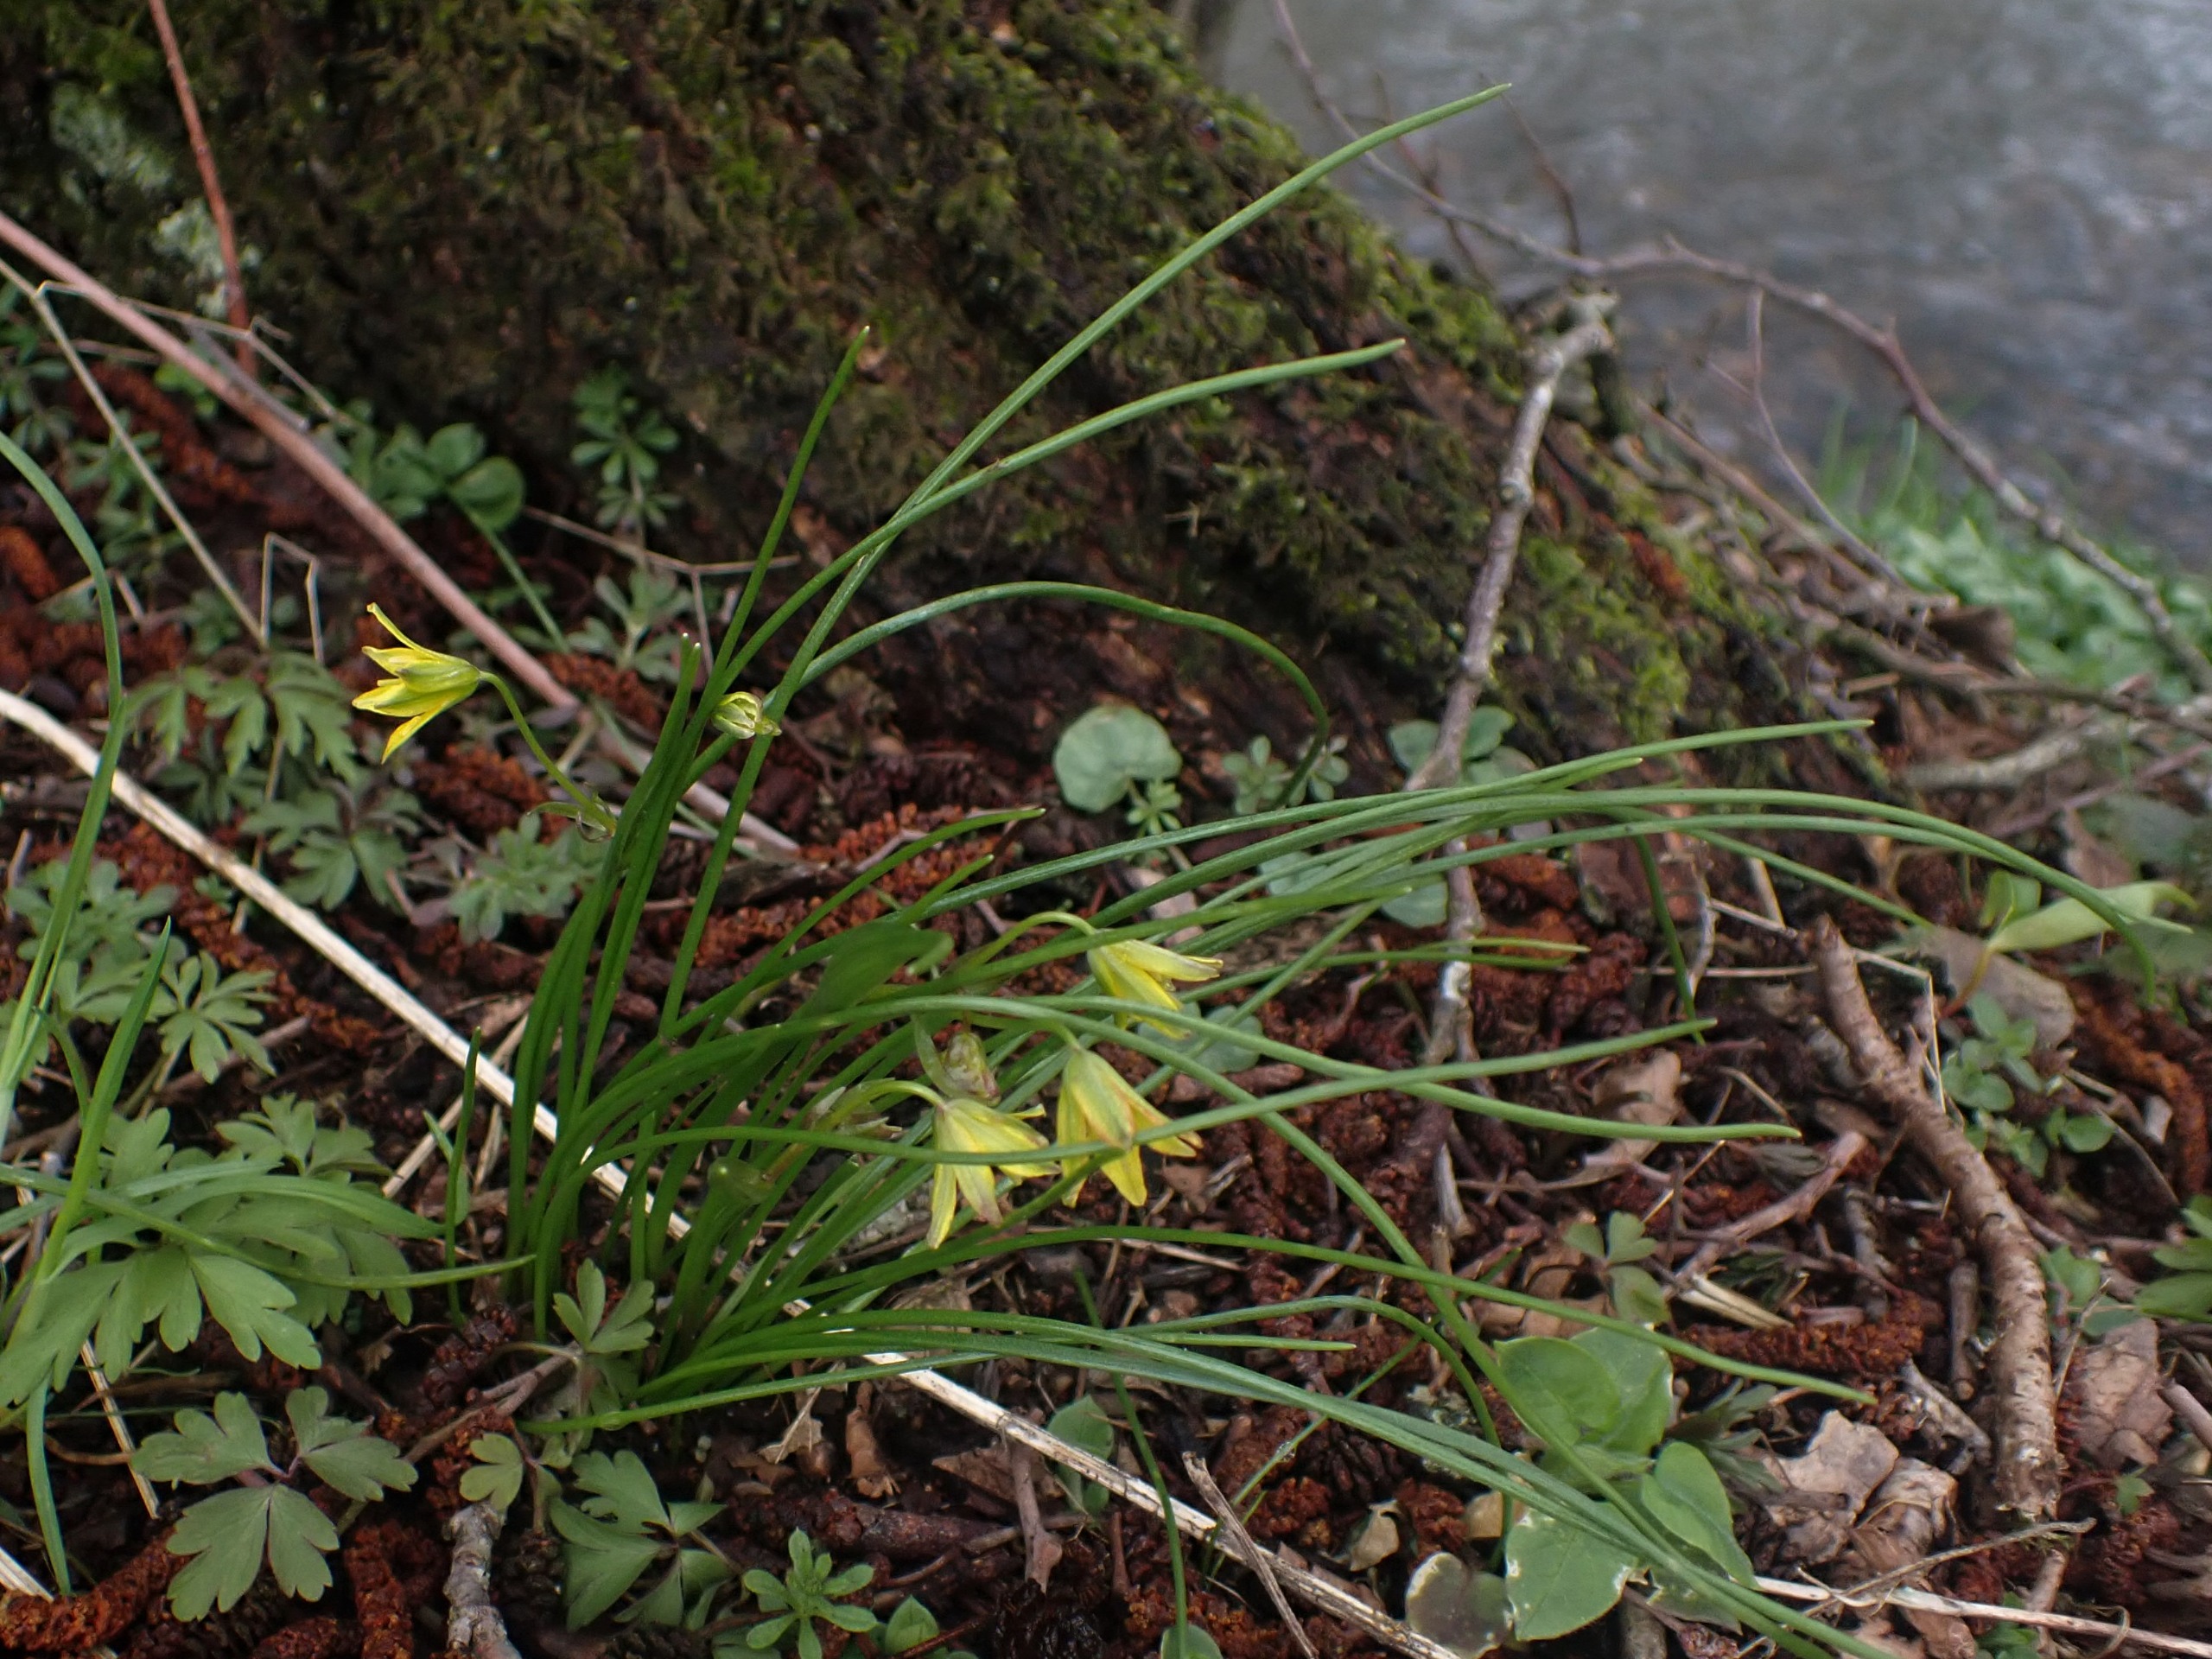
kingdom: Plantae
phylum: Tracheophyta
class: Liliopsida
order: Liliales
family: Liliaceae
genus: Gagea
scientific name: Gagea spathacea
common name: Hylster-guldstjerne
